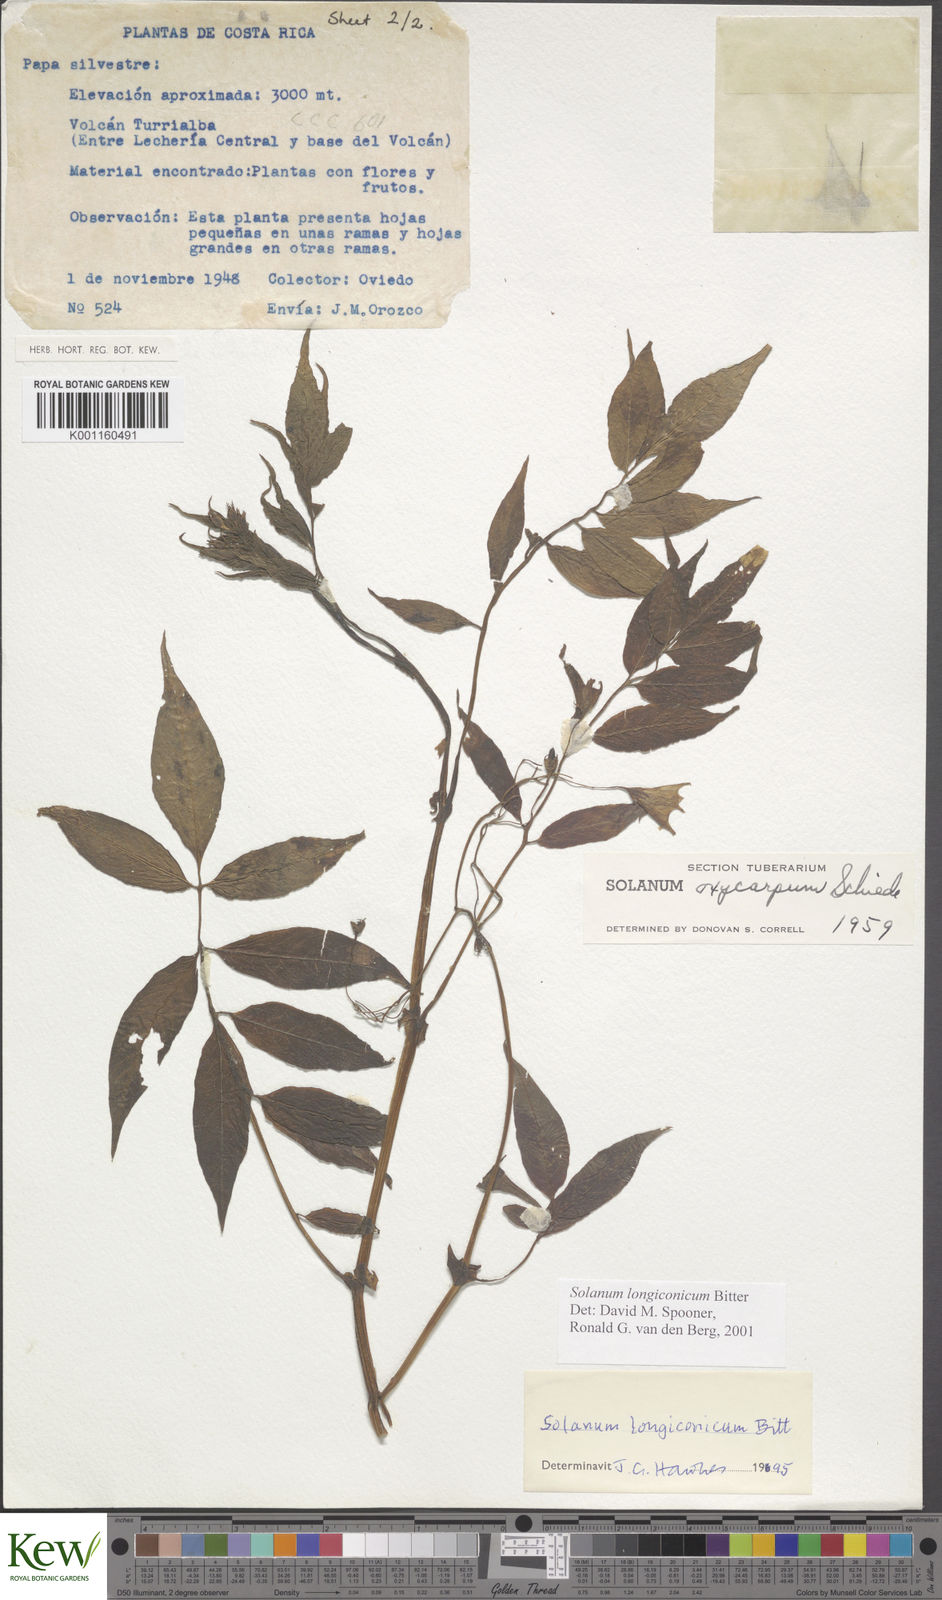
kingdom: Plantae
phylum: Tracheophyta
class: Magnoliopsida
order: Solanales
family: Solanaceae
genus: Solanum
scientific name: Solanum longiconicum
